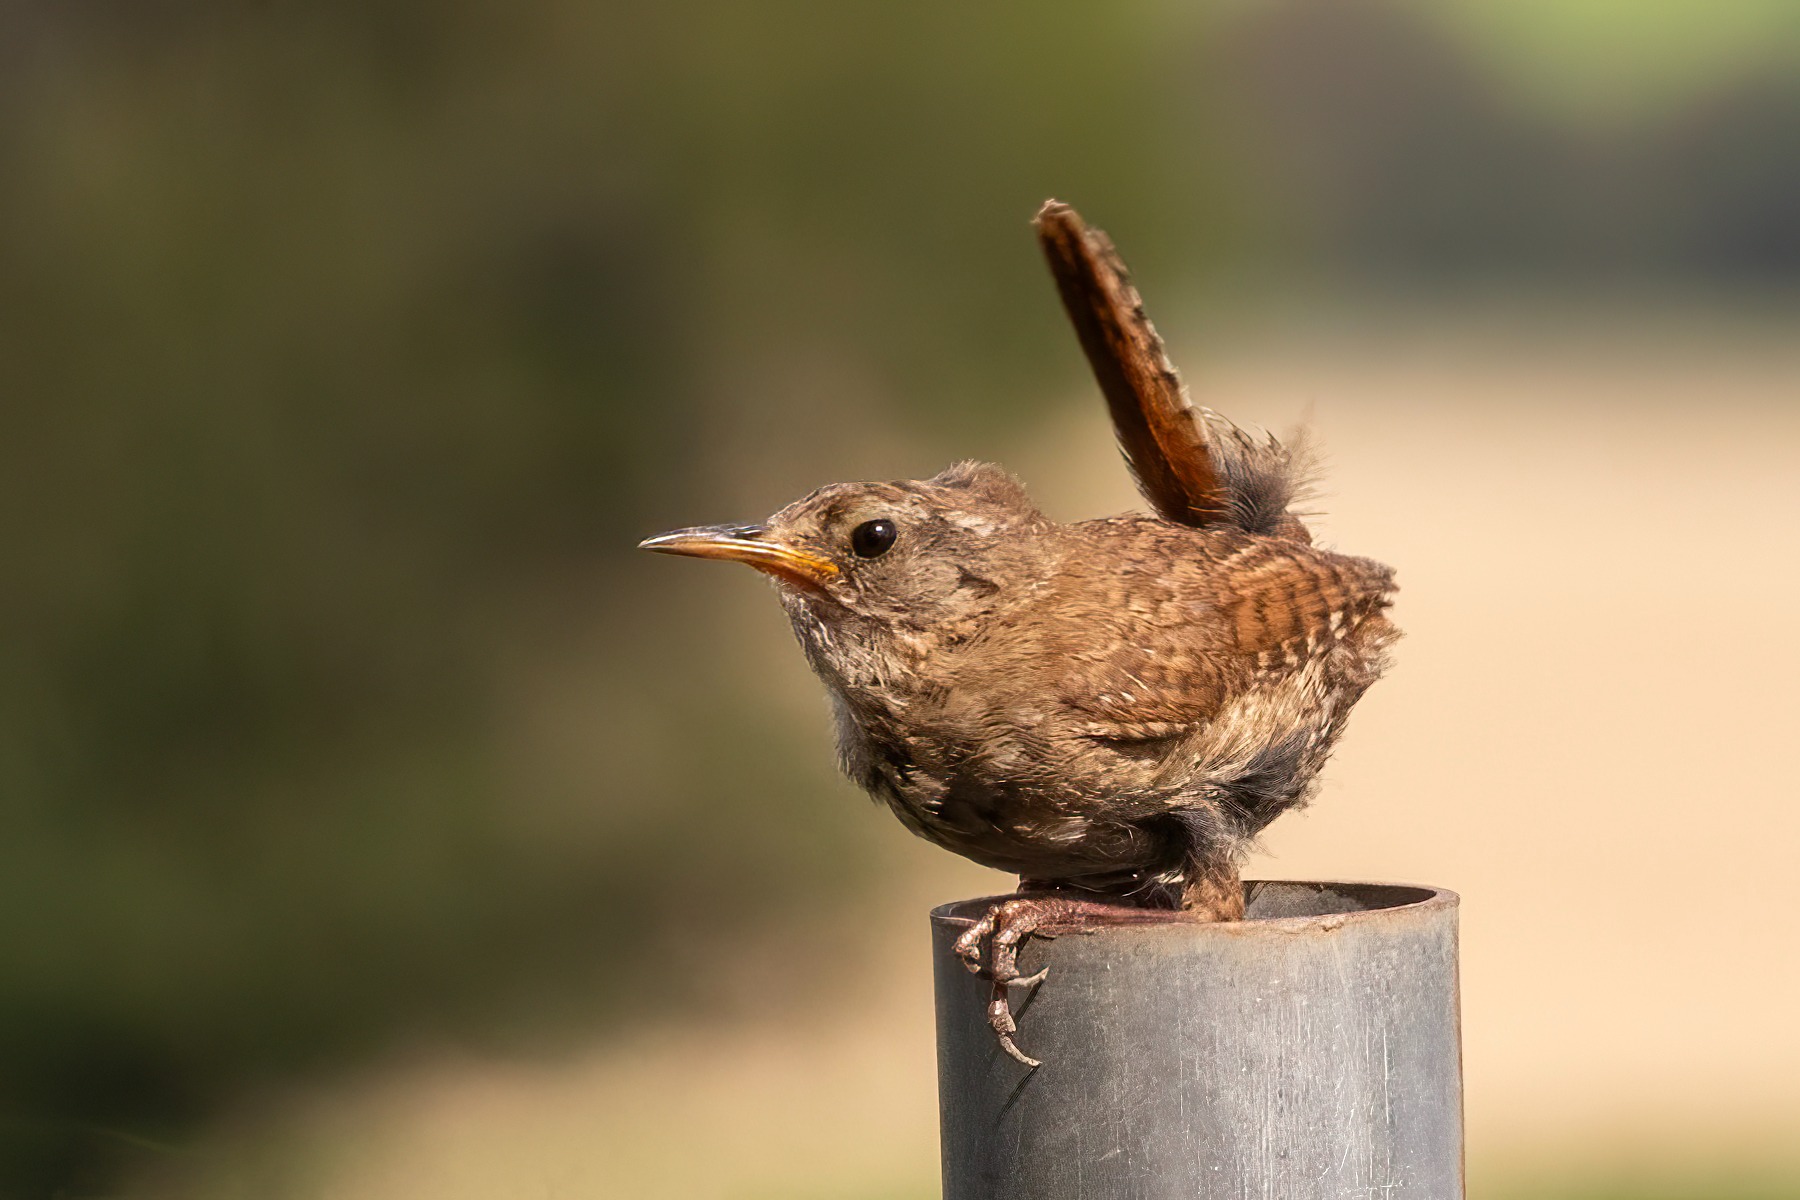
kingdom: Animalia
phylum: Chordata
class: Aves
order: Passeriformes
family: Troglodytidae
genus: Troglodytes
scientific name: Troglodytes troglodytes
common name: Gærdesmutte
